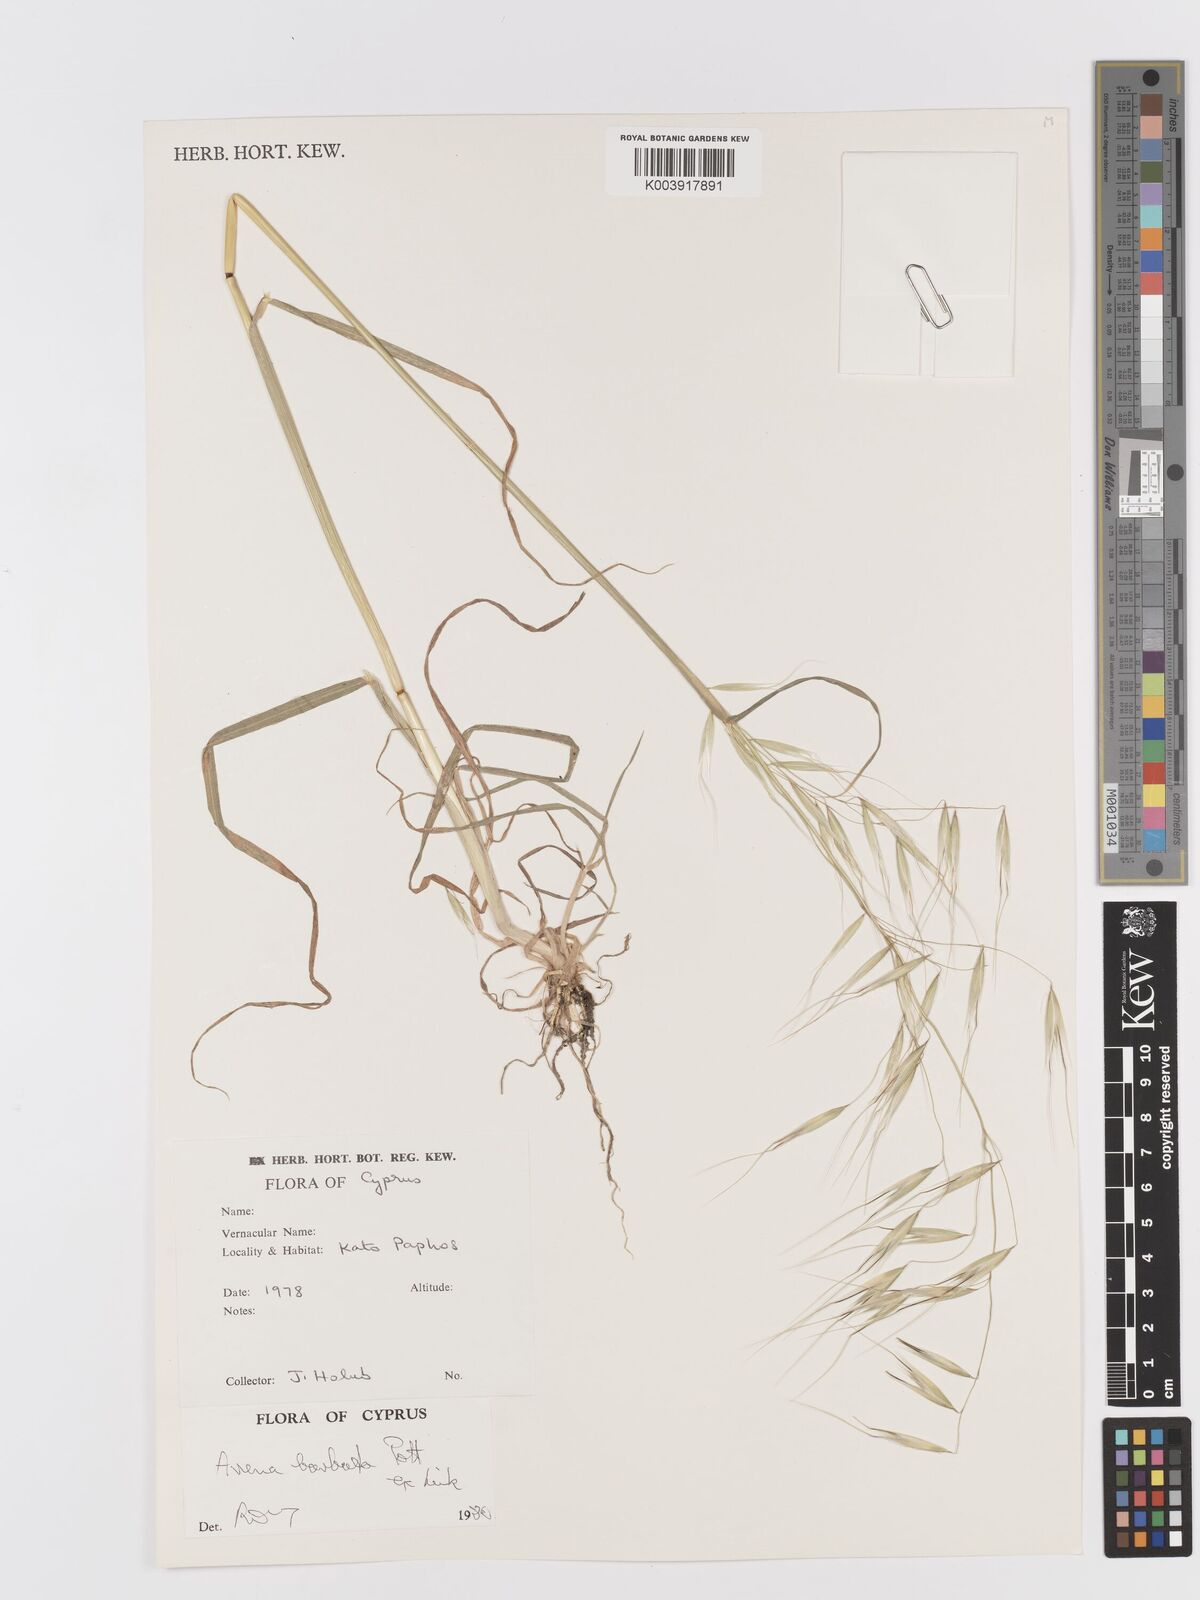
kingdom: Plantae
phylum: Tracheophyta
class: Liliopsida
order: Poales
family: Poaceae
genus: Avena
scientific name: Avena
